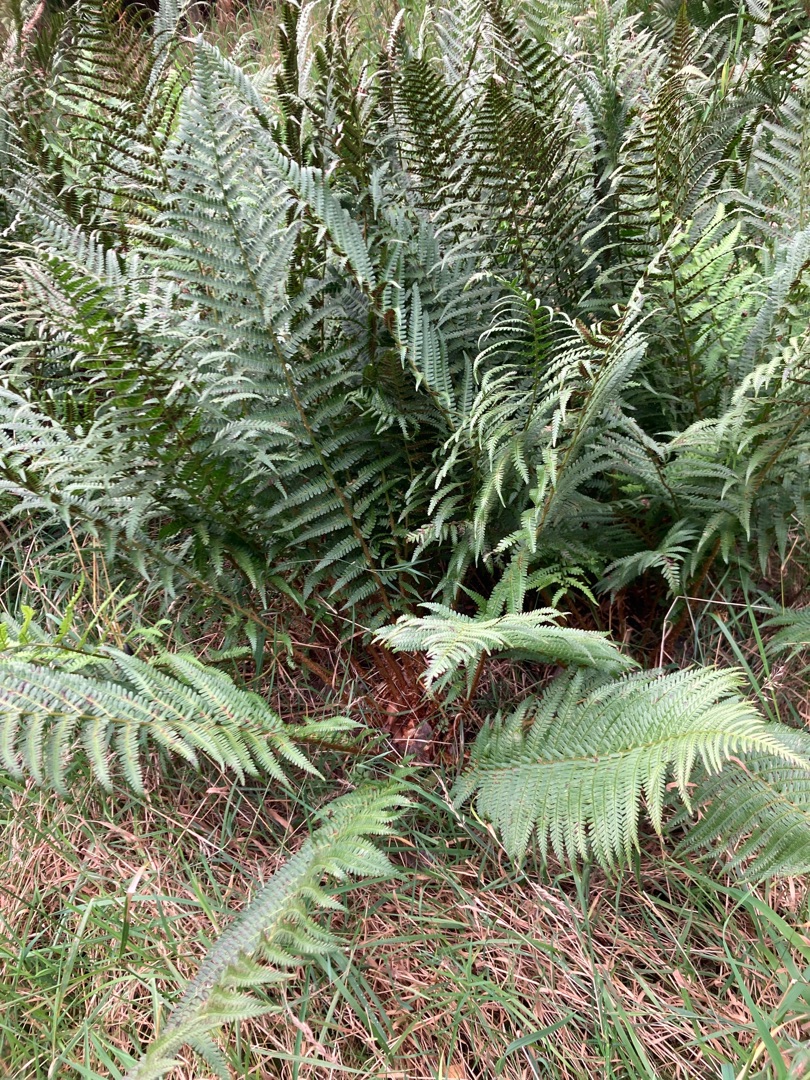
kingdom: Plantae
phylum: Tracheophyta
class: Polypodiopsida
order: Polypodiales
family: Dryopteridaceae
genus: Dryopteris
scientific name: Dryopteris
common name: Mangeløv (Dryopteris-slægten)
